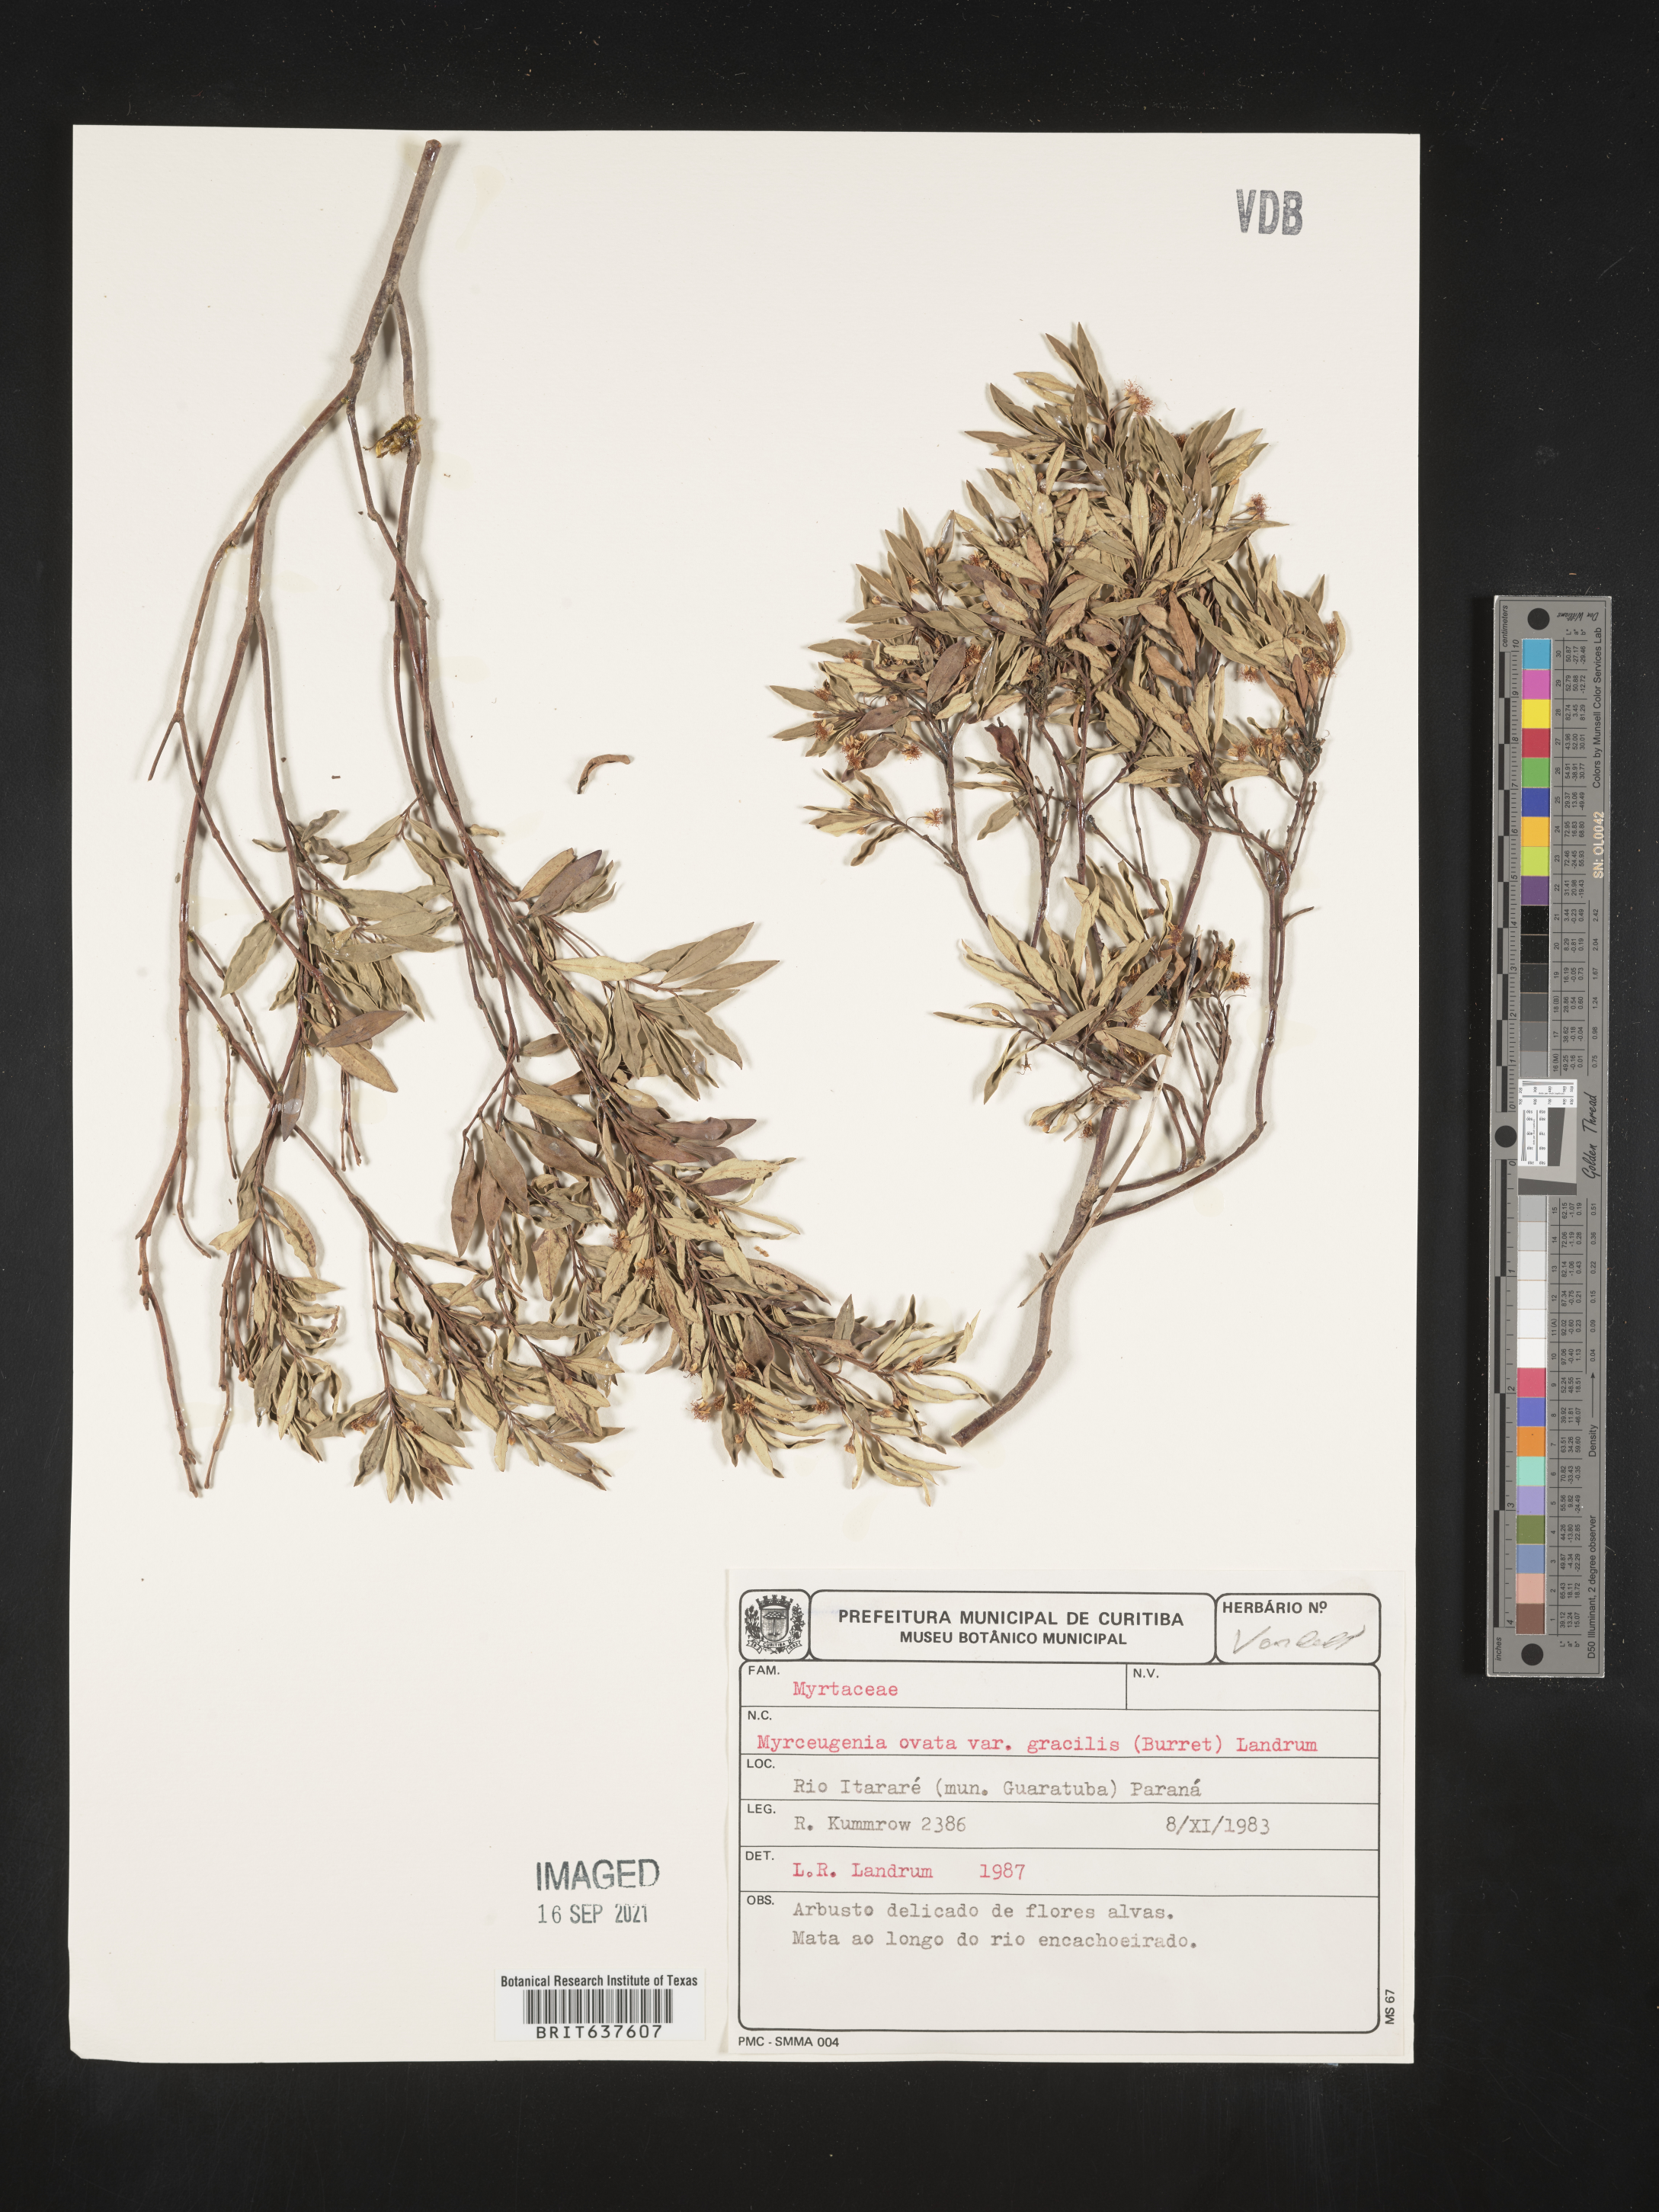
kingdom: Plantae
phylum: Tracheophyta
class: Magnoliopsida
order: Myrtales
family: Myrtaceae
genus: Myrceugenia
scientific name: Myrceugenia
